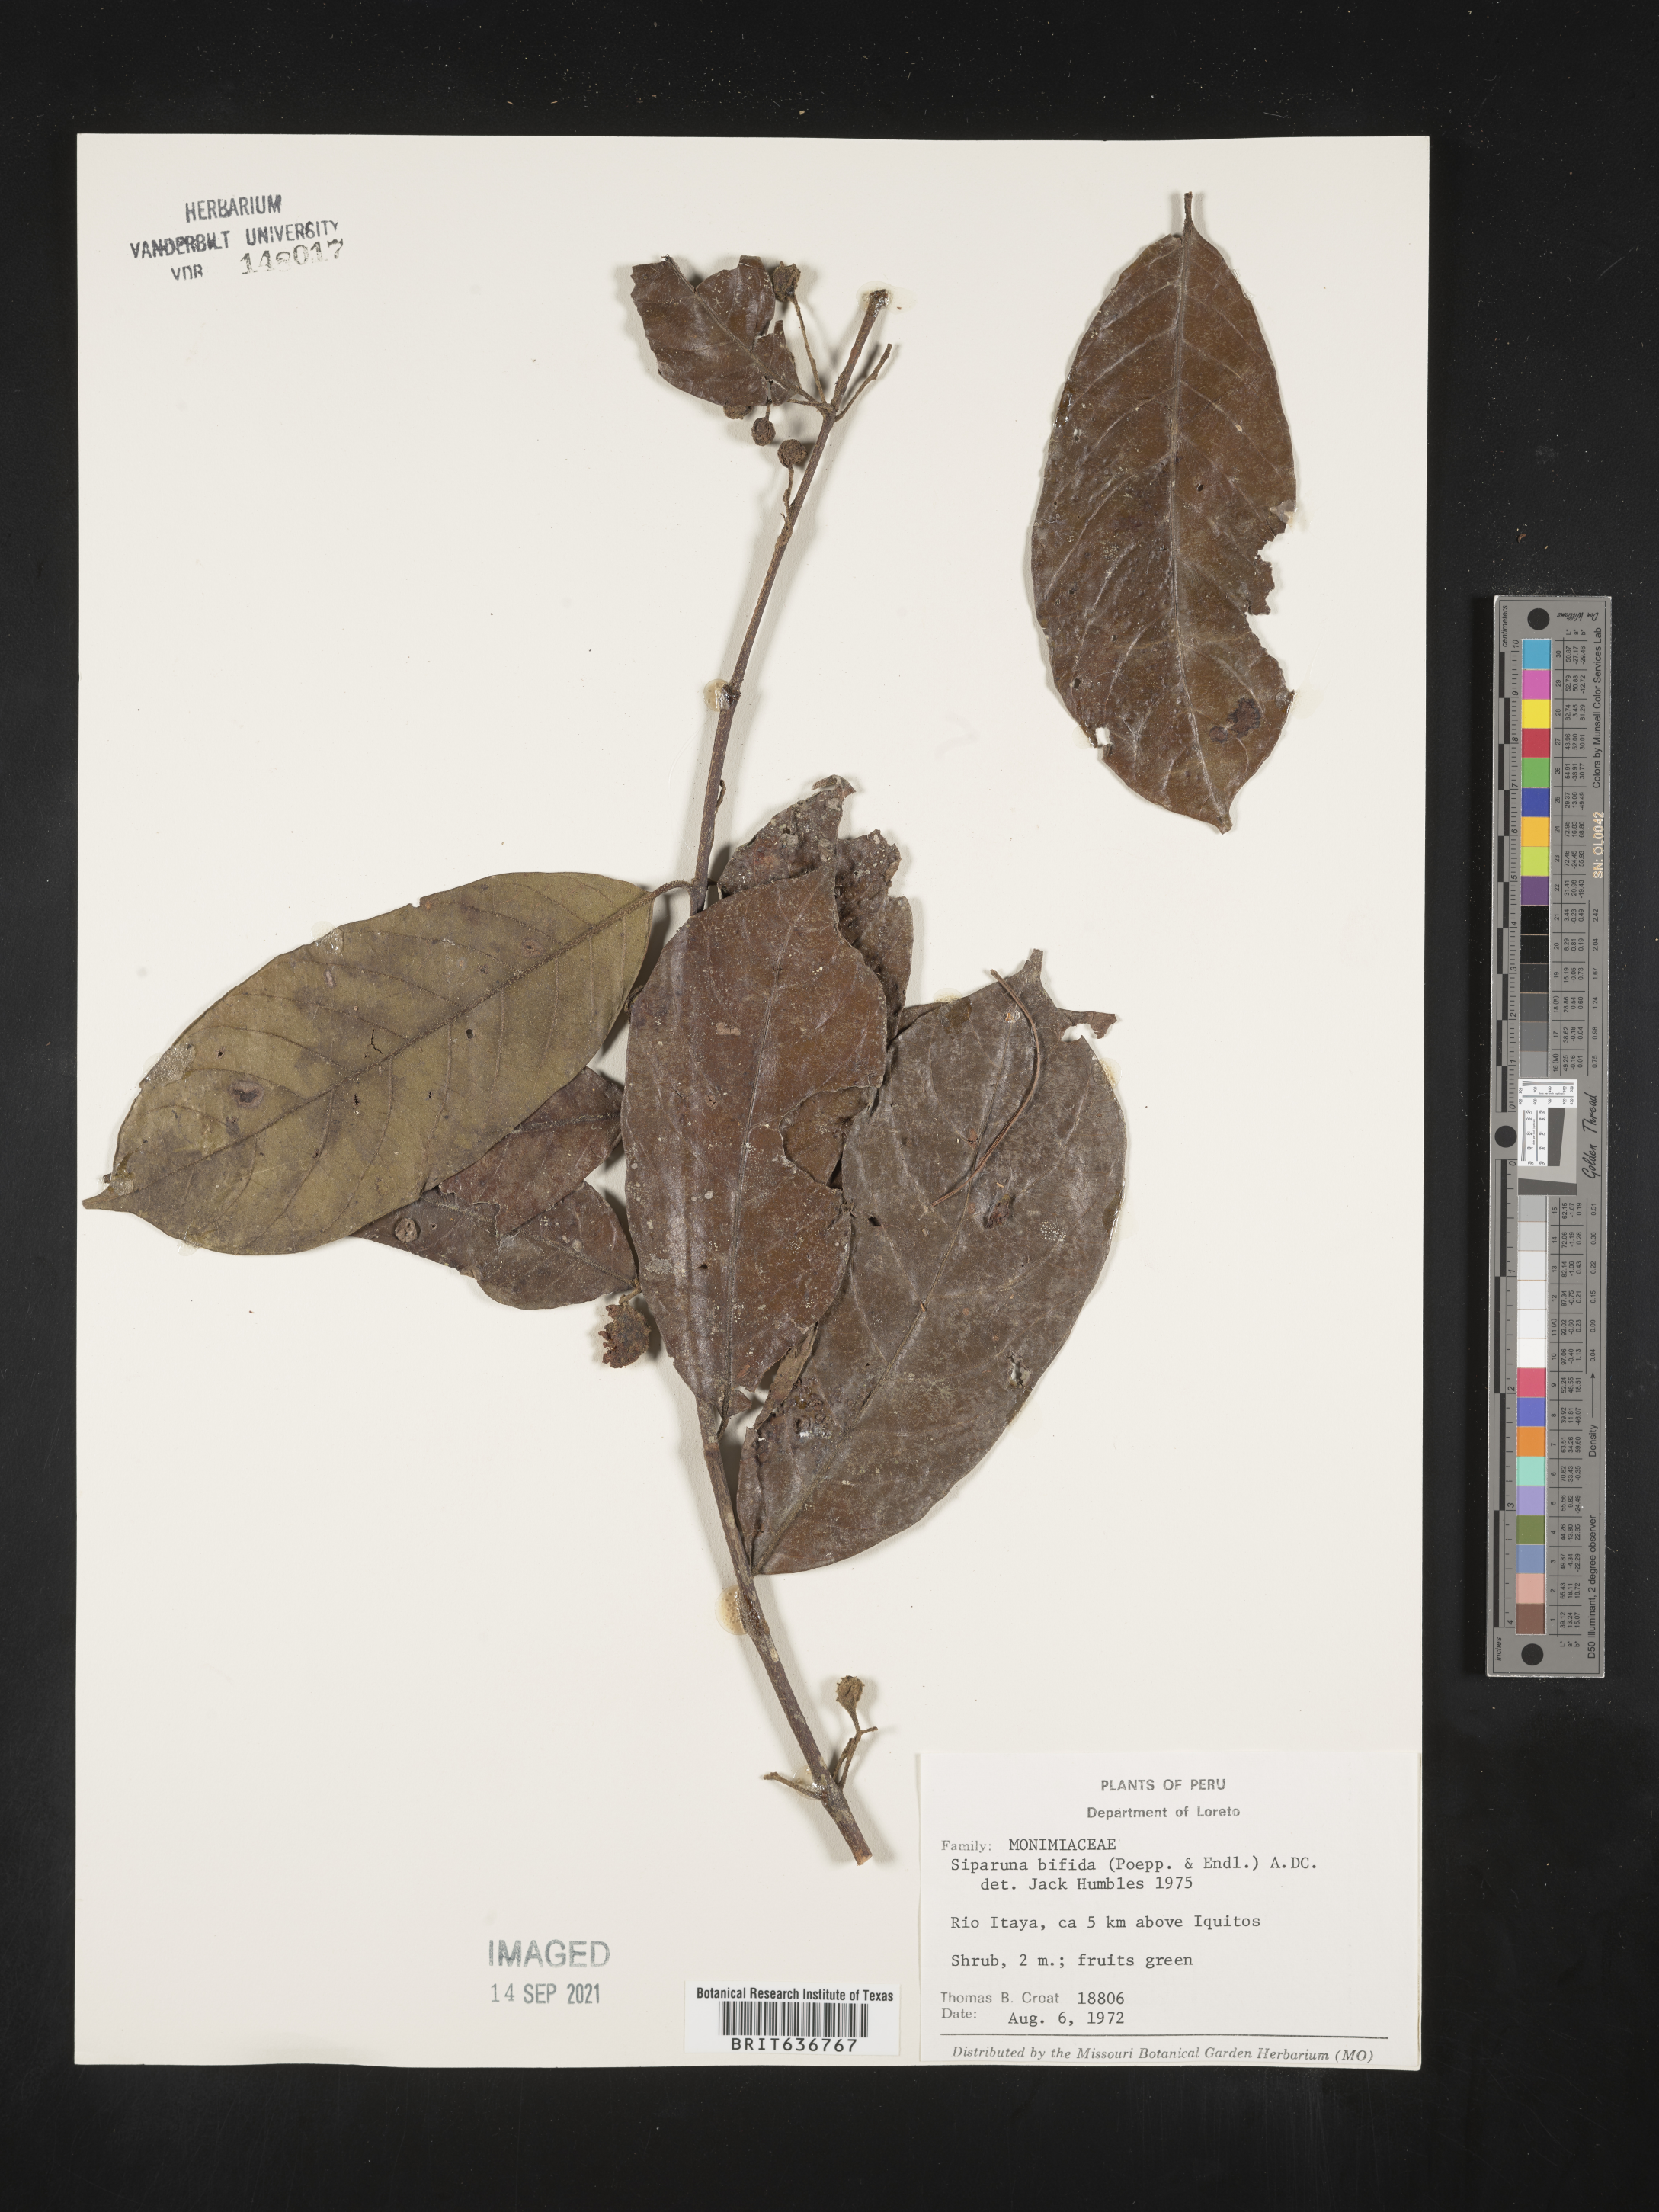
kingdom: Plantae
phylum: Tracheophyta
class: Magnoliopsida
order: Laurales
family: Siparunaceae
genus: Siparuna
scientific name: Siparuna
